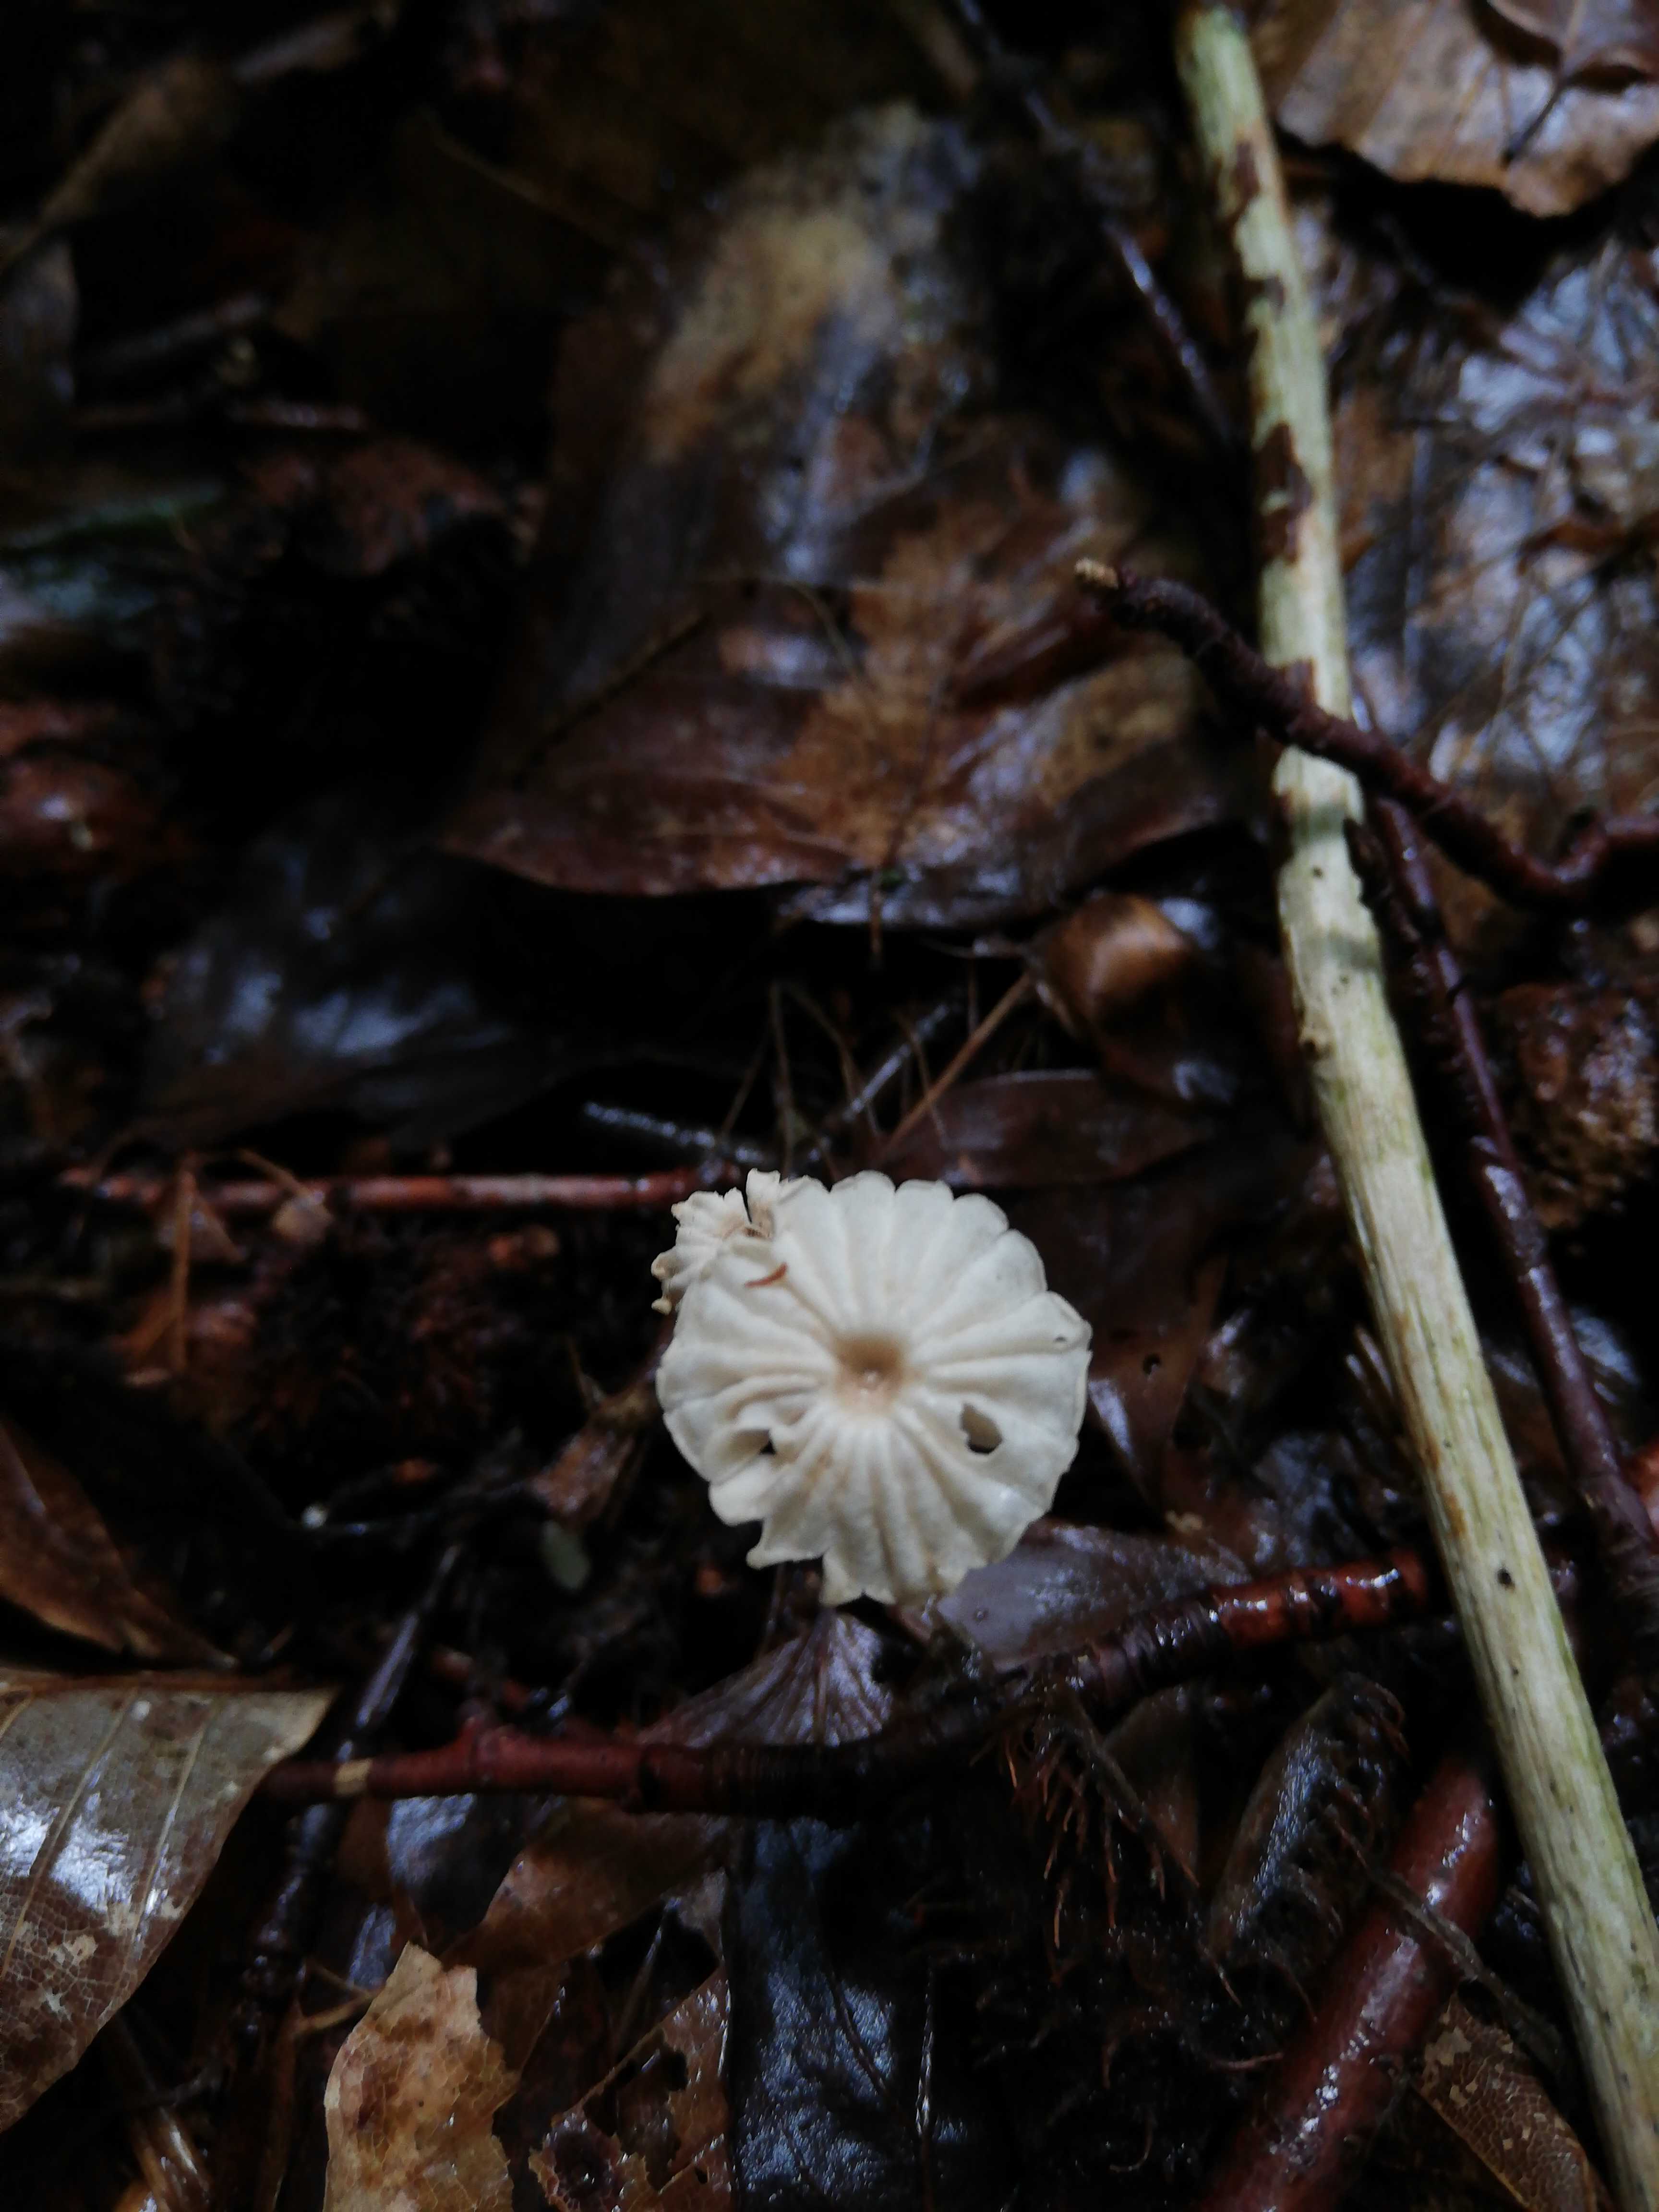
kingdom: Fungi
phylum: Basidiomycota
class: Agaricomycetes
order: Agaricales
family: Marasmiaceae
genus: Marasmius
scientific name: Marasmius rotula
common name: hjul-bruskhat
